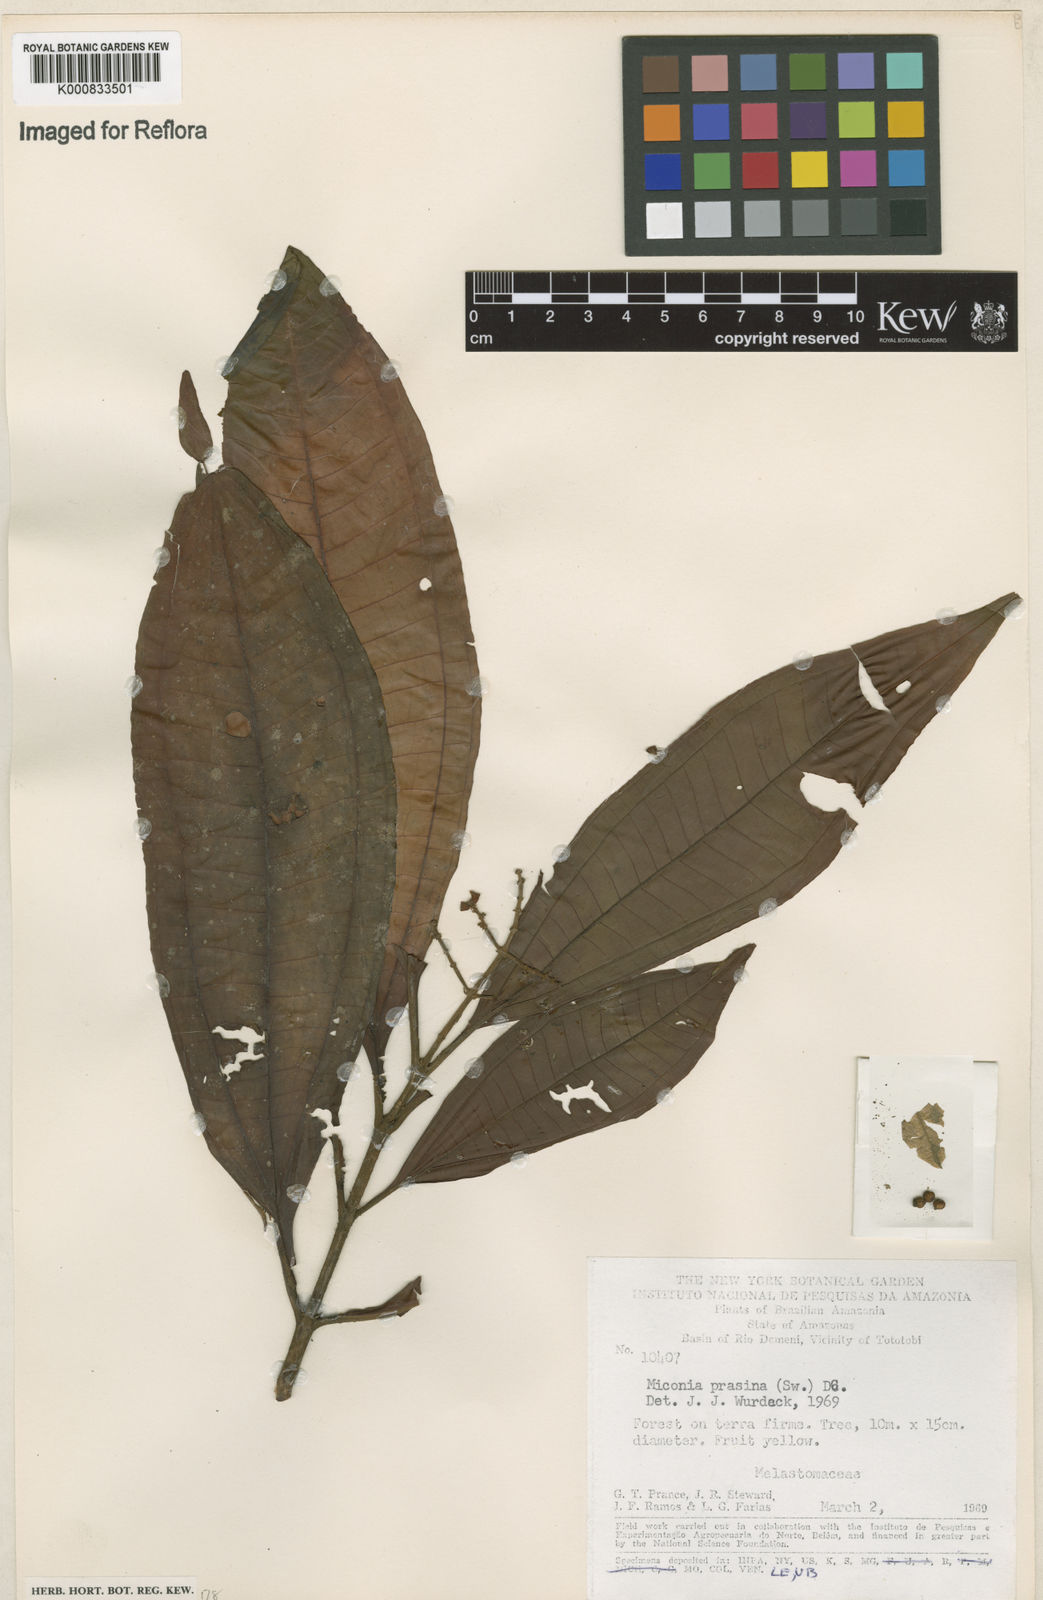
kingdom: Plantae
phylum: Tracheophyta
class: Magnoliopsida
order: Myrtales
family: Melastomataceae
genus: Miconia
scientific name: Miconia prasina
